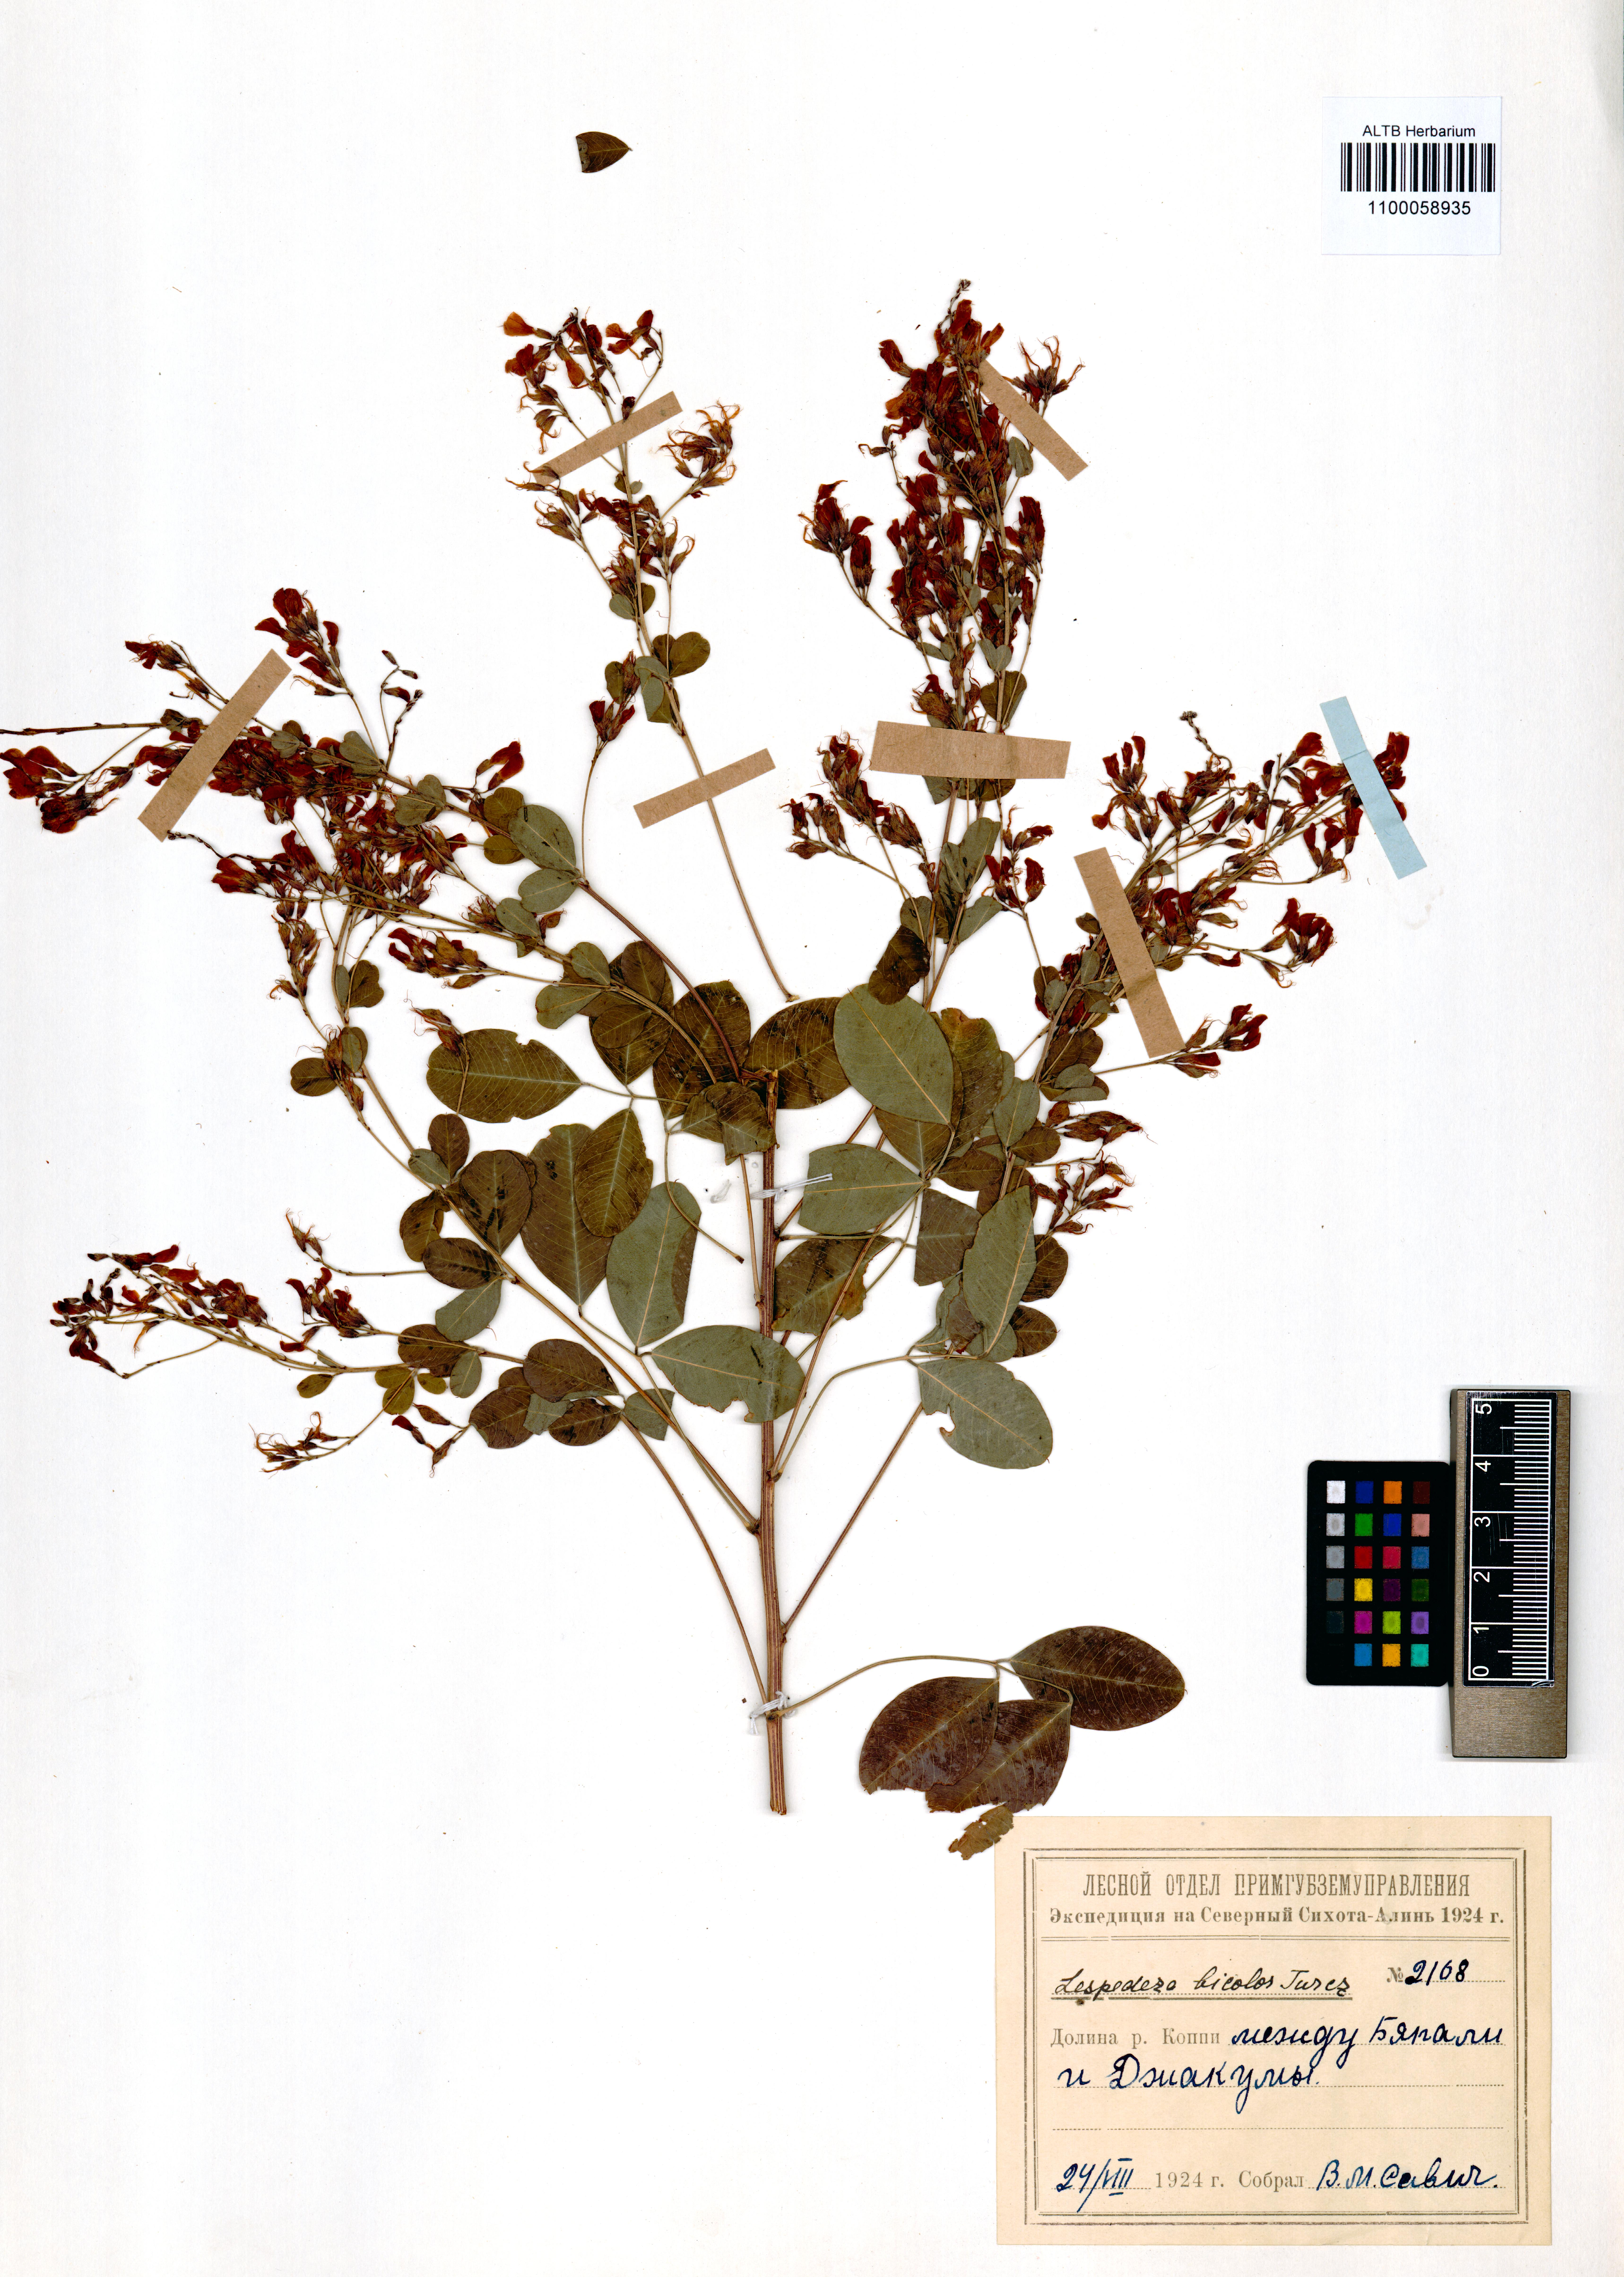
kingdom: Plantae
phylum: Tracheophyta
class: Magnoliopsida
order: Fabales
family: Fabaceae
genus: Lespedeza
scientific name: Lespedeza bicolor
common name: Shrub lespedeza
